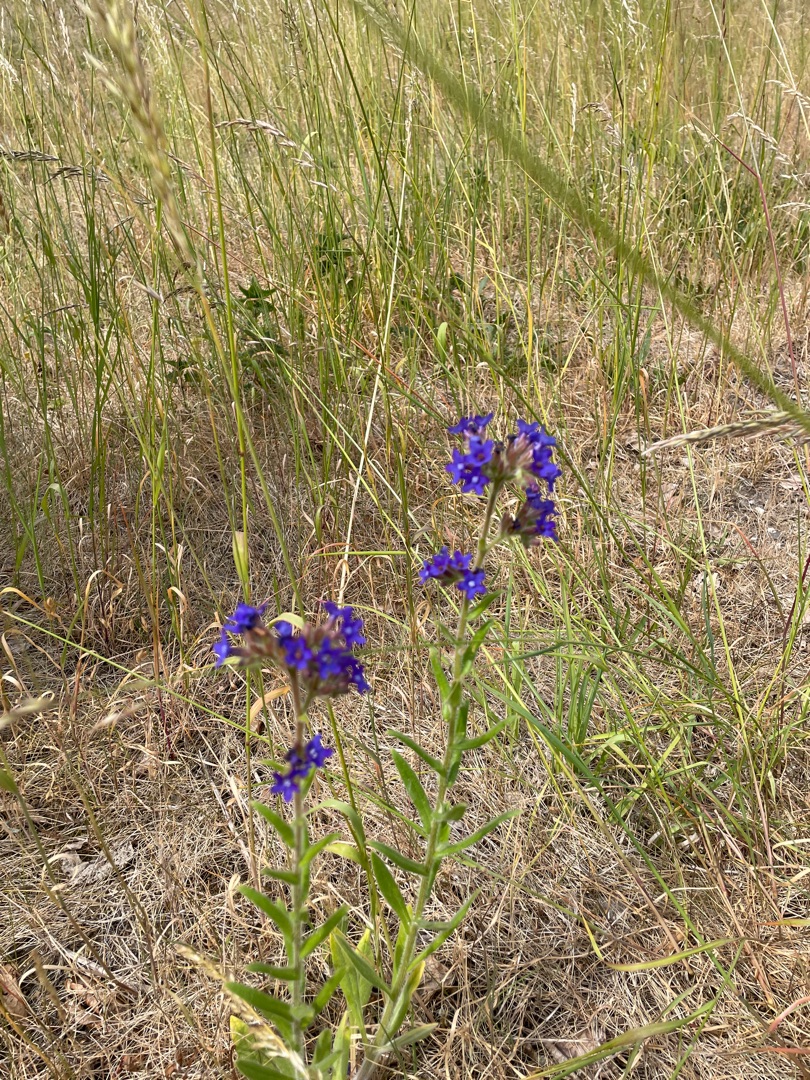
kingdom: Plantae
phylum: Tracheophyta
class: Magnoliopsida
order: Boraginales
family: Boraginaceae
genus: Anchusa
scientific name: Anchusa officinalis
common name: Læge-oksetunge
